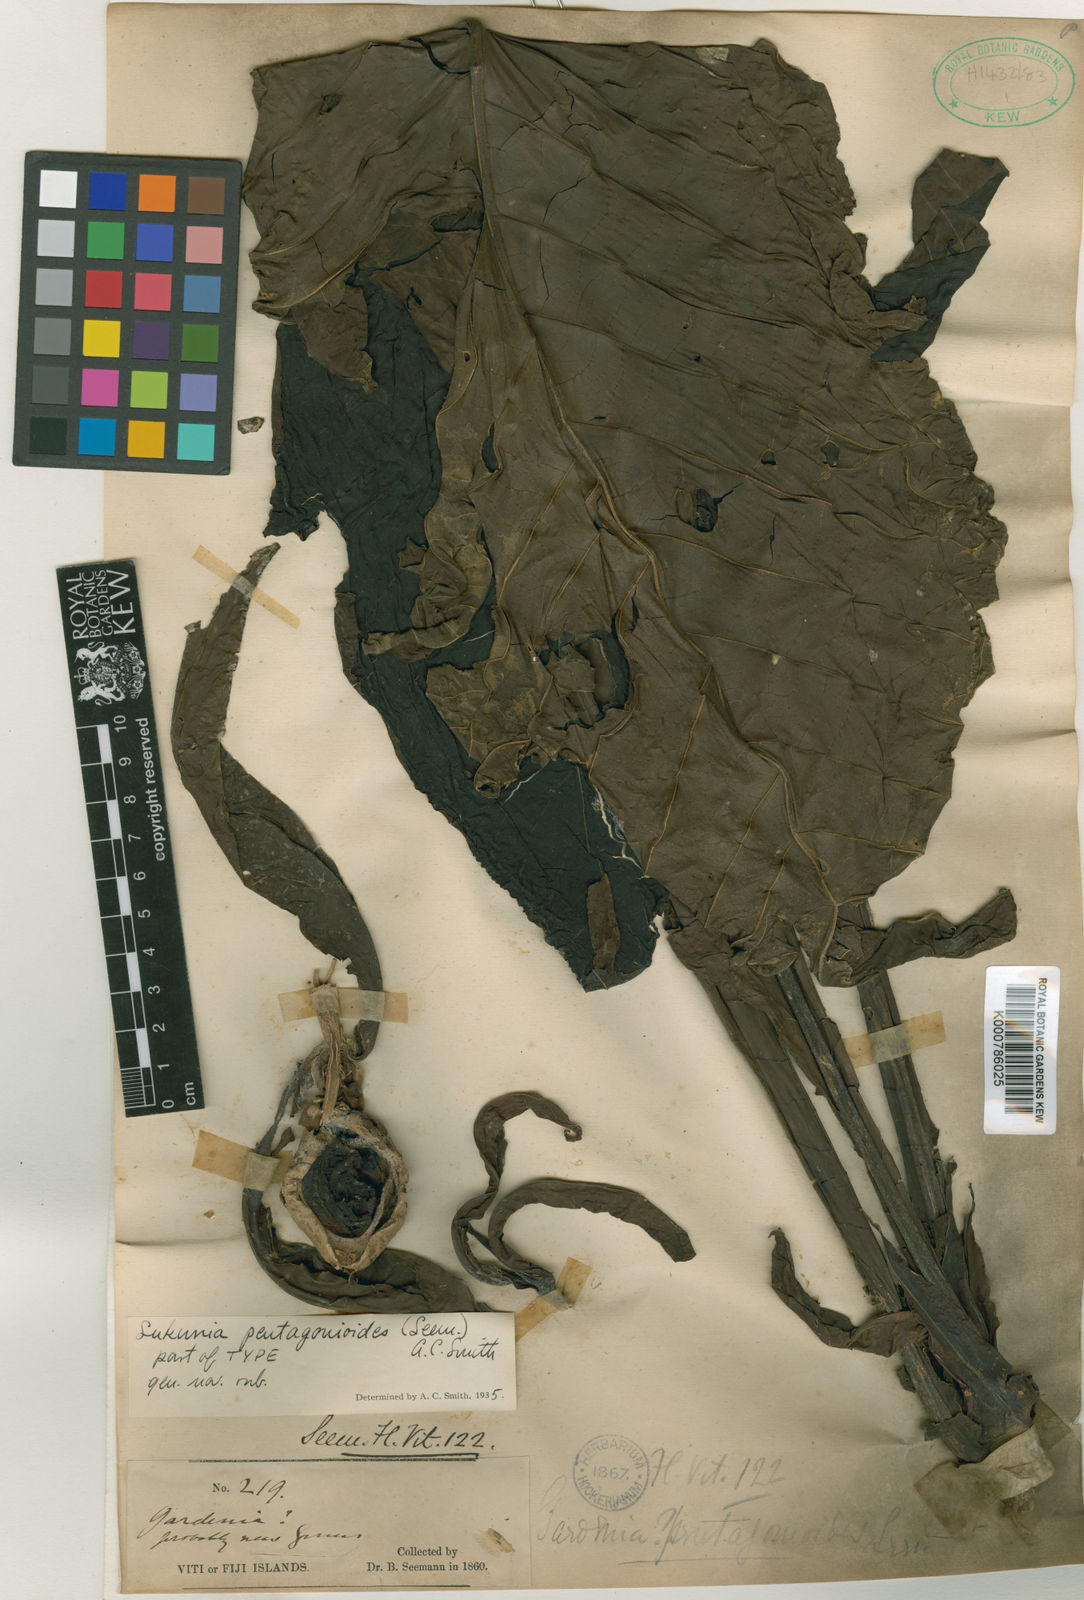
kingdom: Plantae
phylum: Tracheophyta
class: Magnoliopsida
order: Gentianales
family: Rubiaceae
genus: Atractocarpus
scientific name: Atractocarpus pentagonioides
